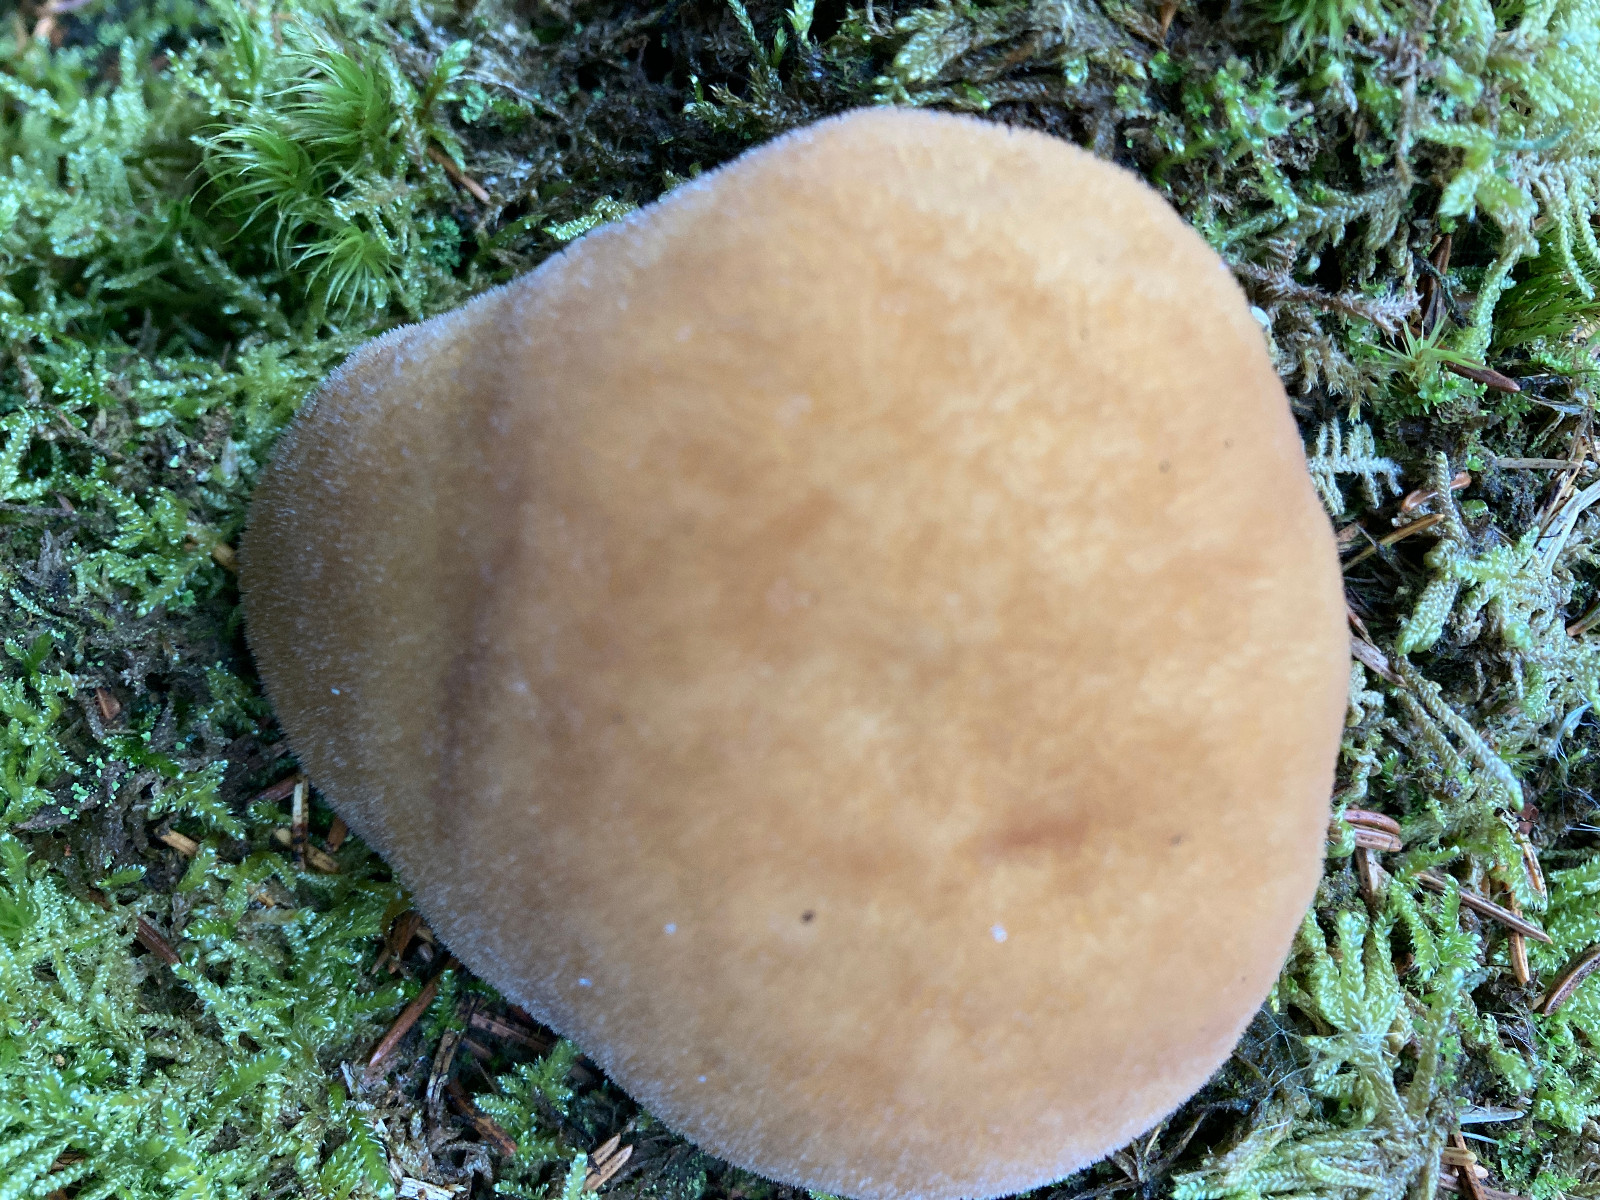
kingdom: Fungi
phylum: Basidiomycota
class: Agaricomycetes
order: Polyporales
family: Dacryobolaceae
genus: Postia
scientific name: Postia ptychogaster
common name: støvende kødporesvamp
